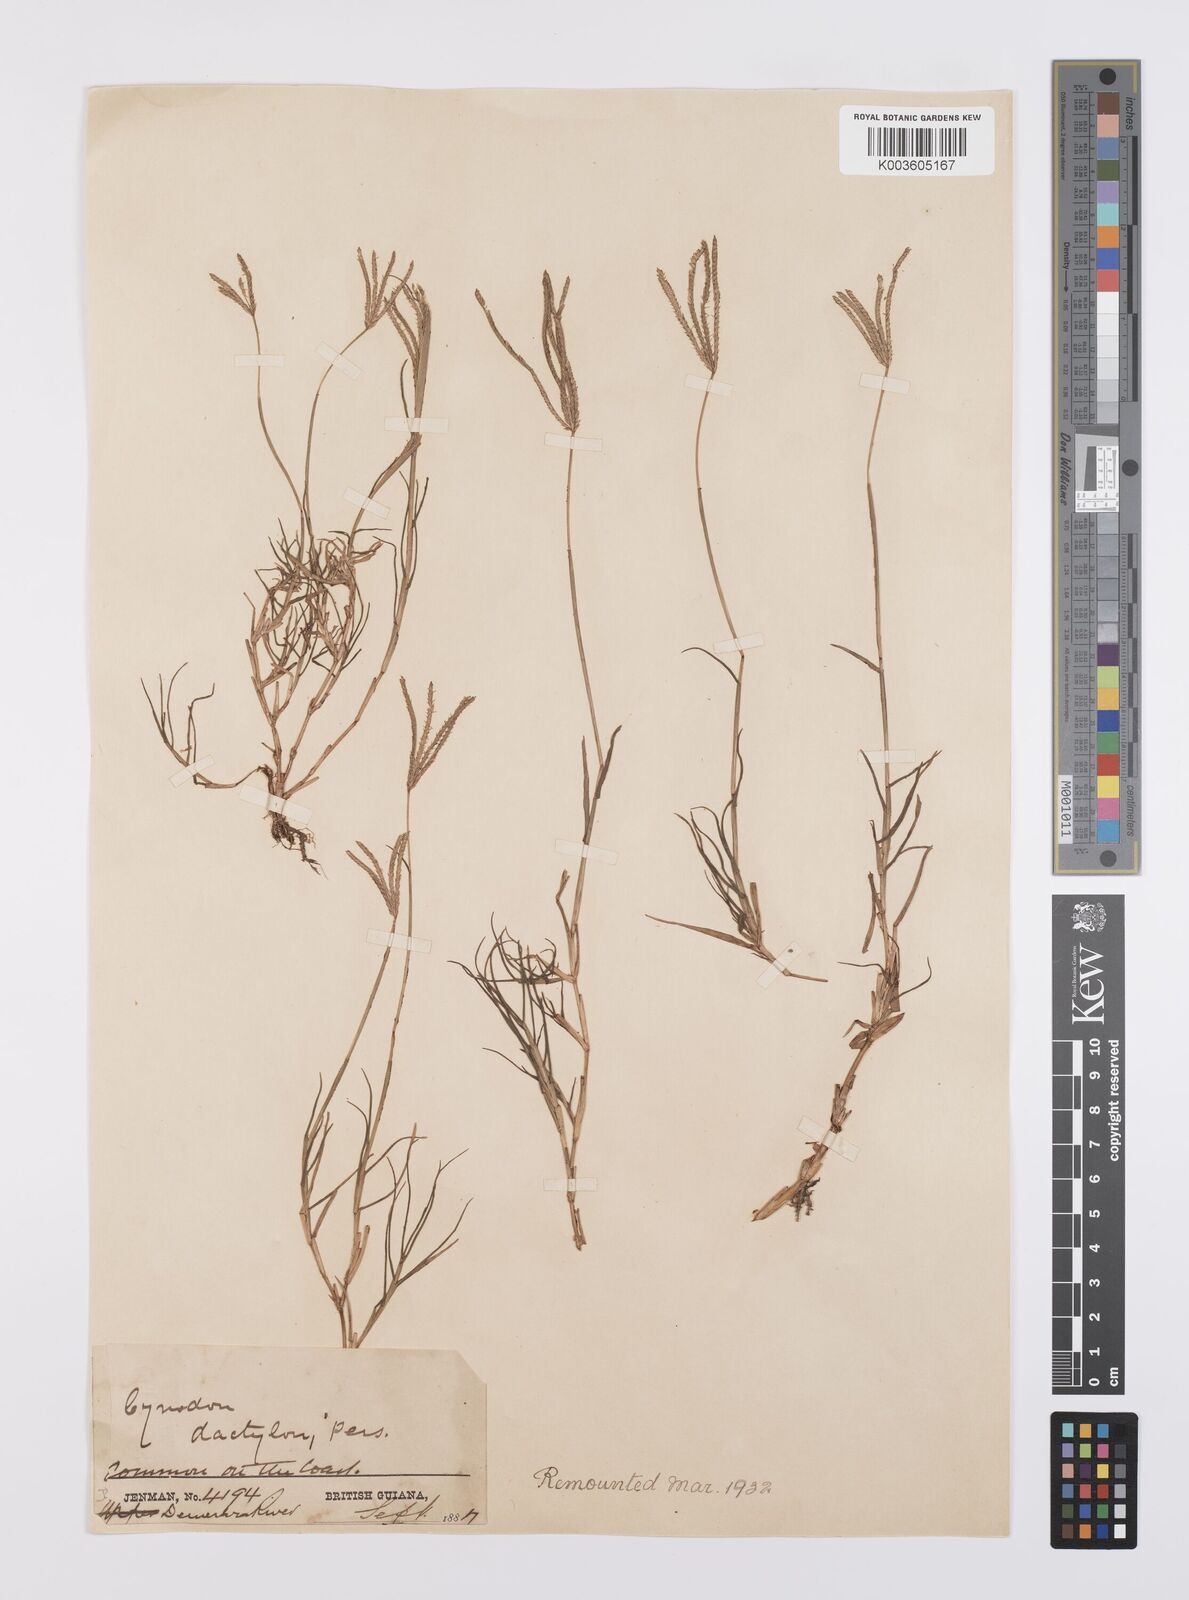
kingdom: Plantae
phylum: Tracheophyta
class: Liliopsida
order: Poales
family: Poaceae
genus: Cynodon
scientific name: Cynodon dactylon
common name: Bermuda grass
